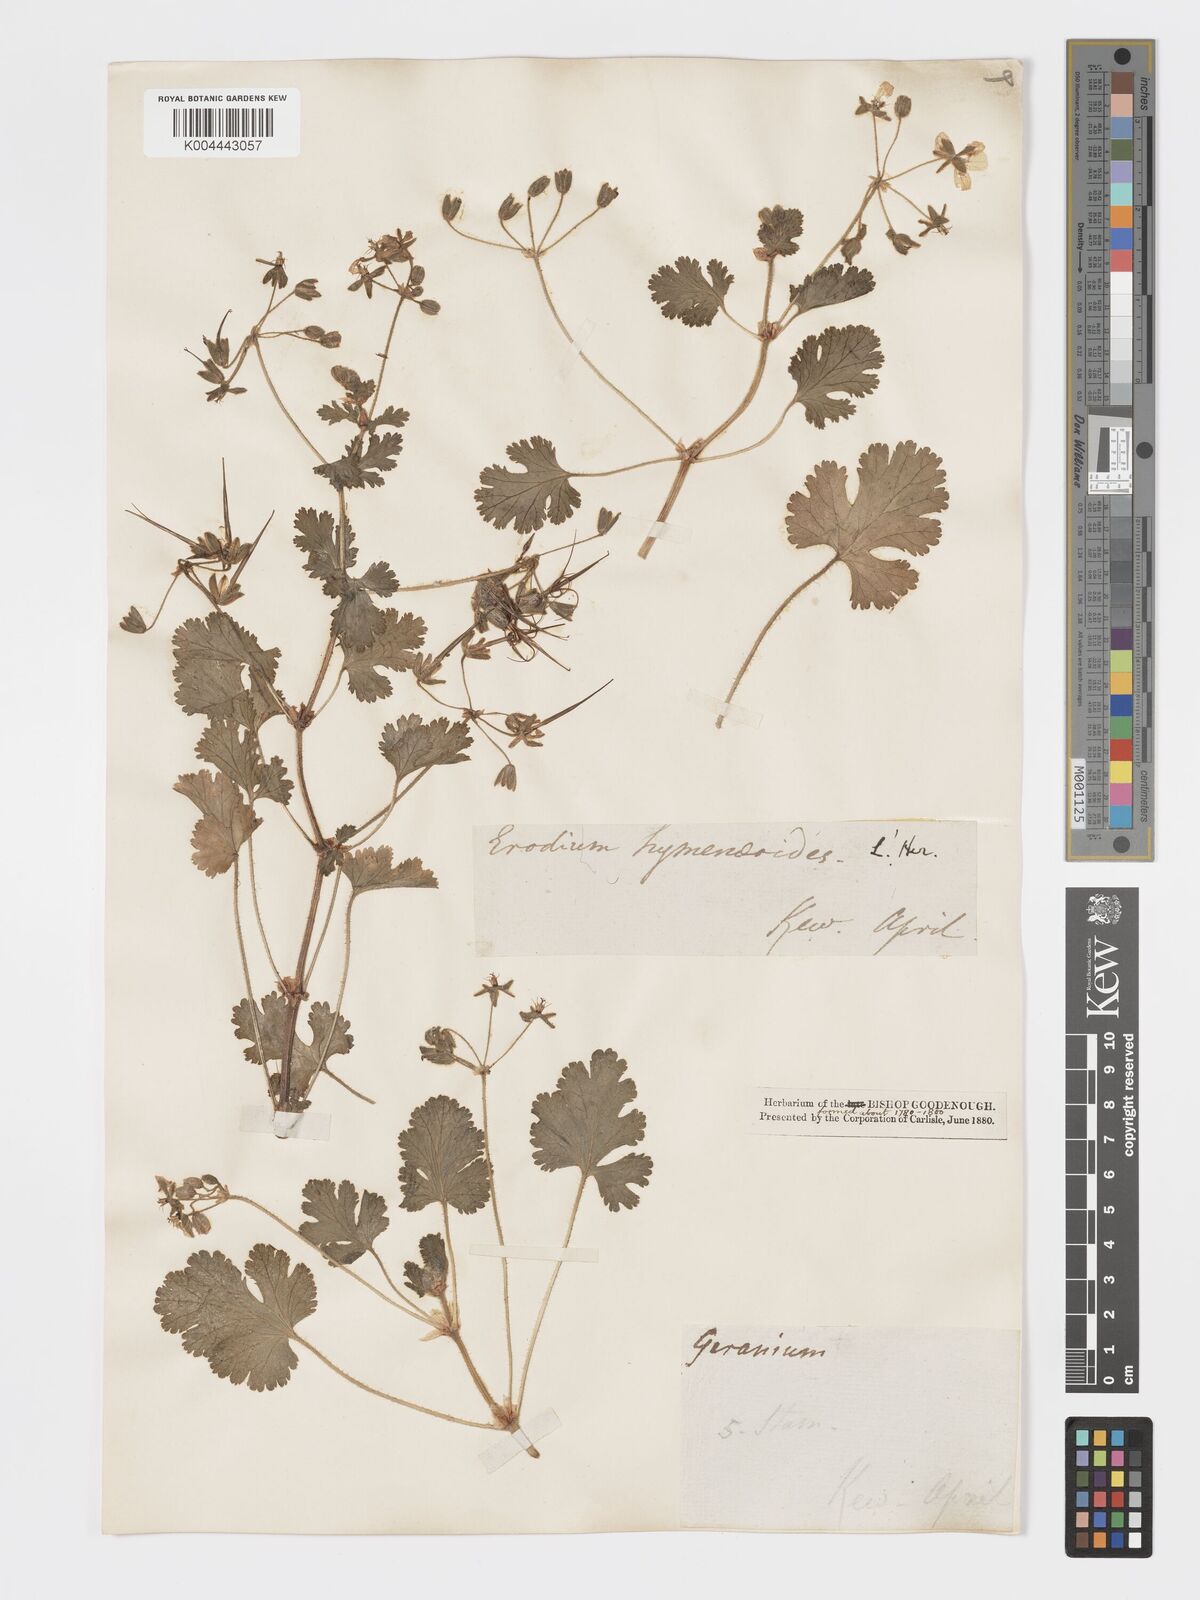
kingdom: Plantae
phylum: Tracheophyta
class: Magnoliopsida
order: Geraniales
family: Geraniaceae
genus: Erodium
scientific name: Erodium trifolium
